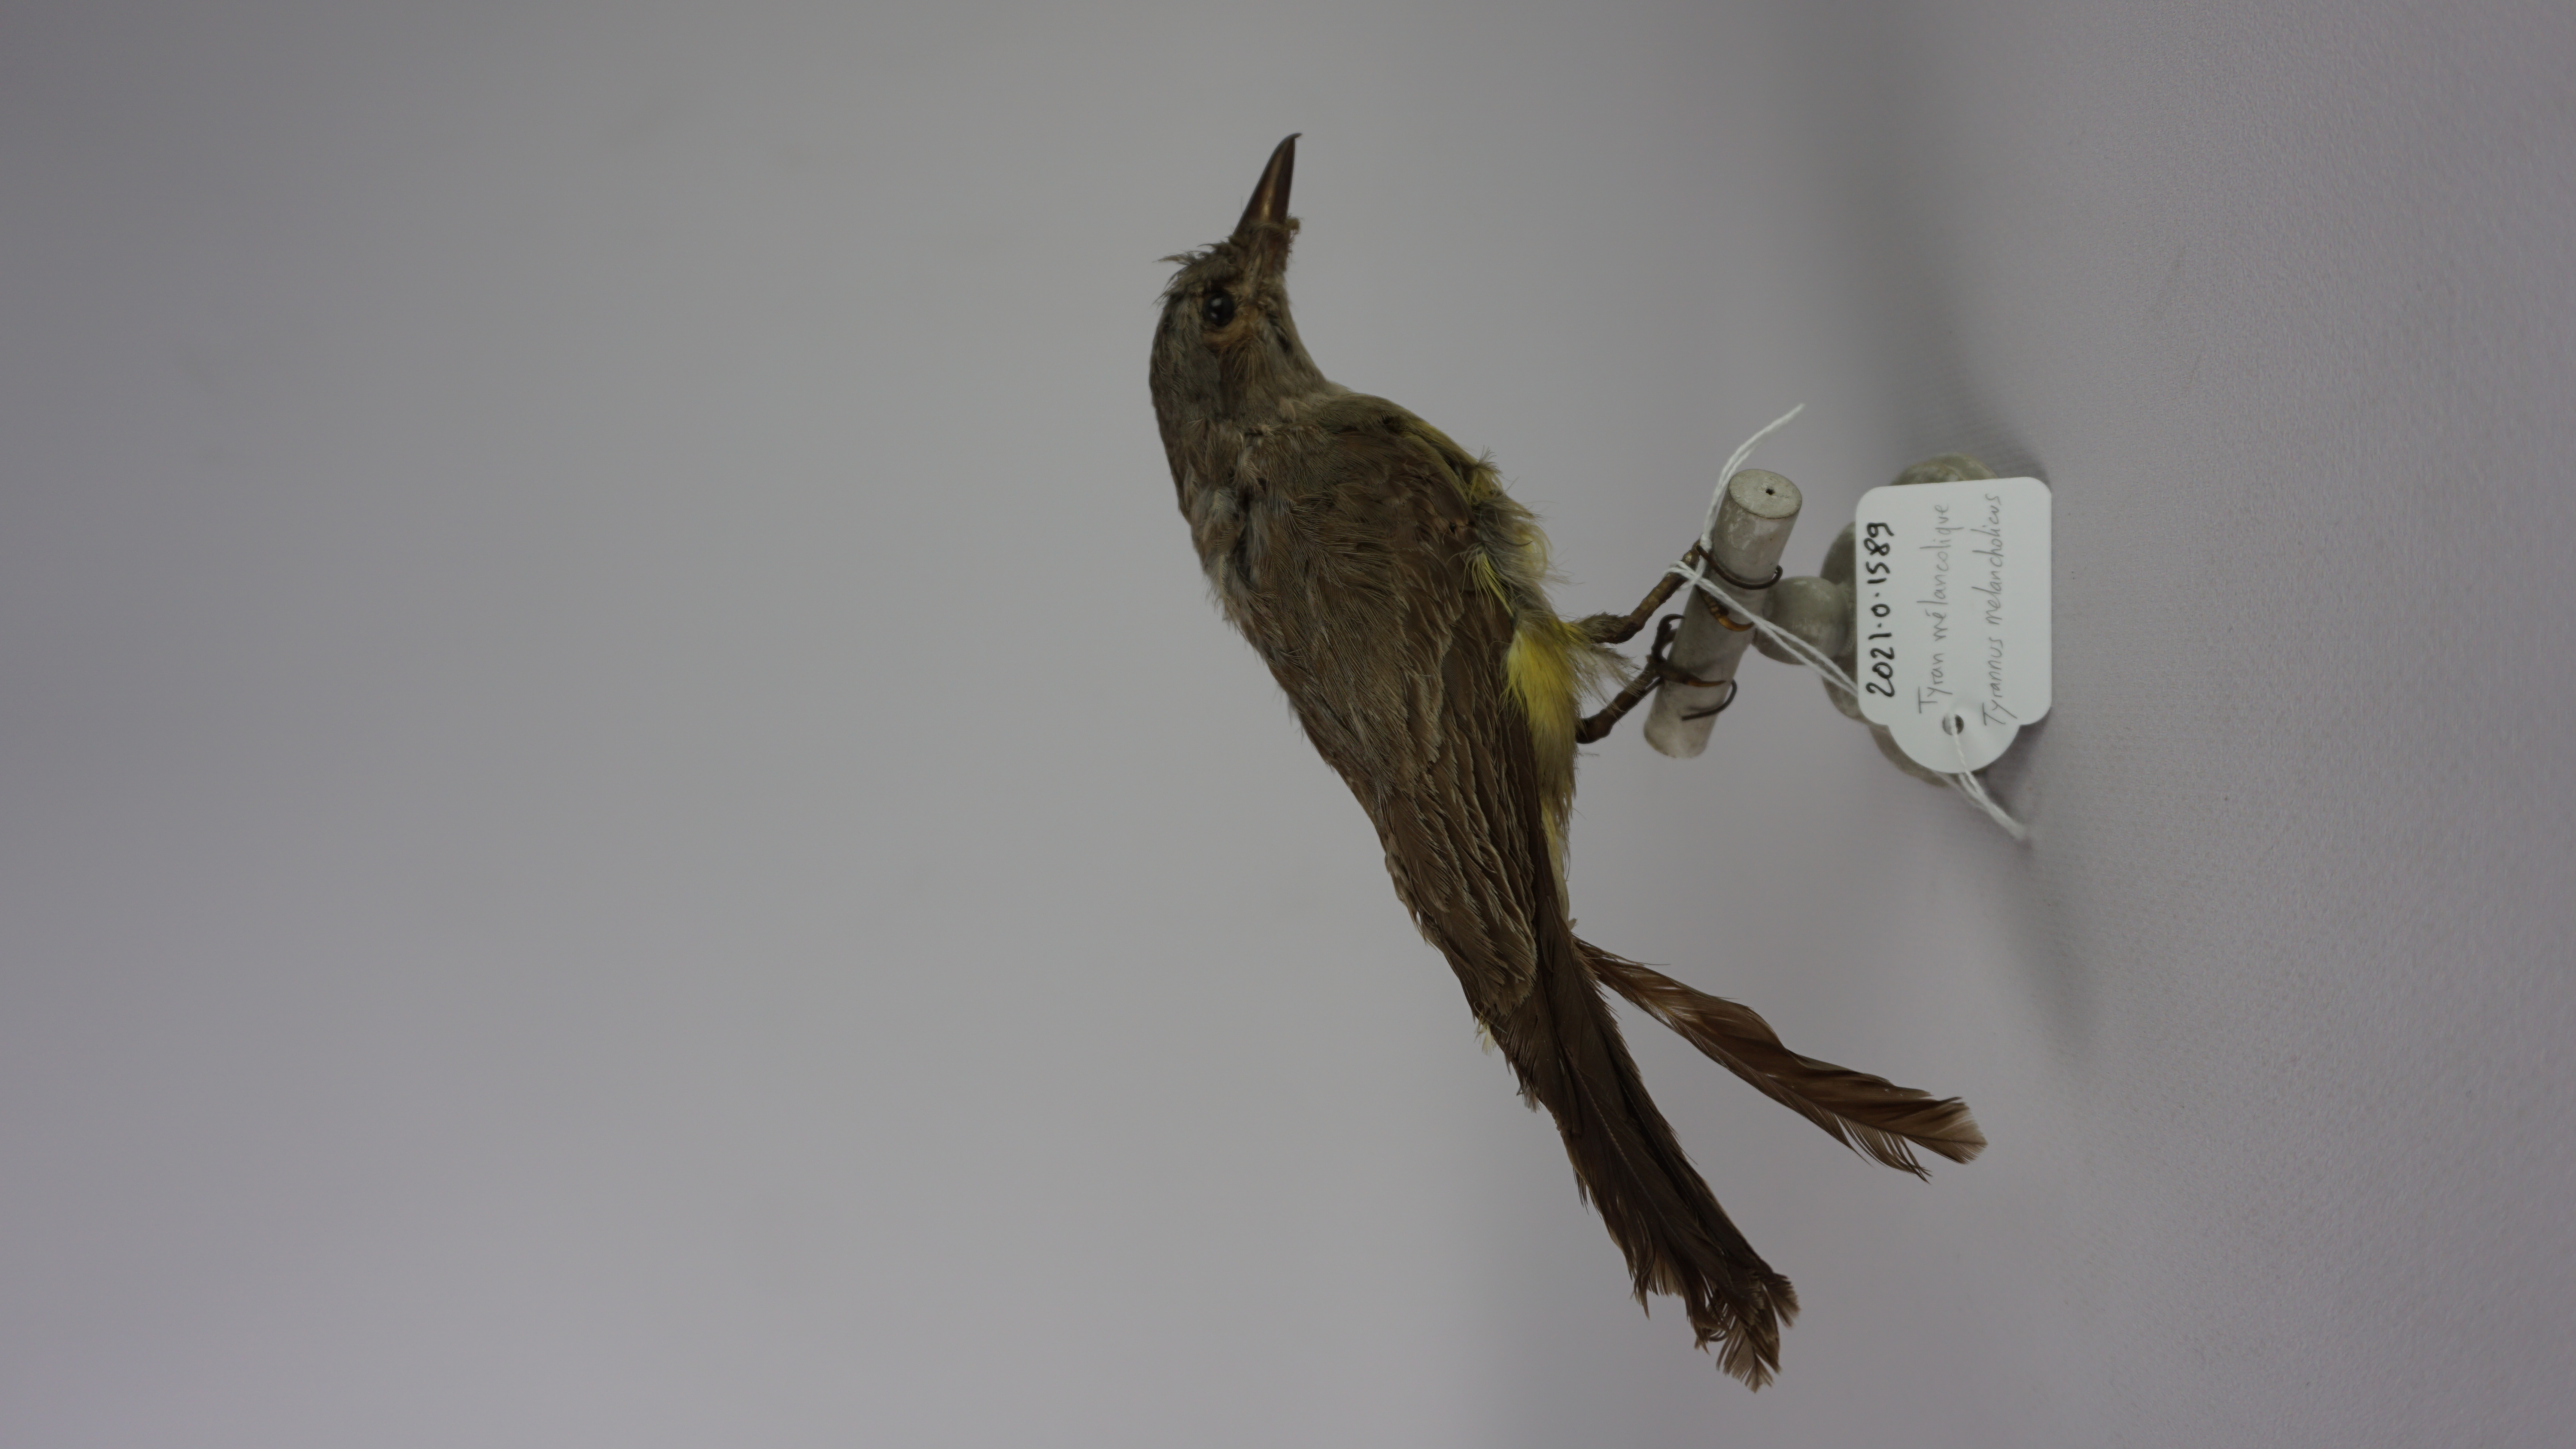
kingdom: Animalia
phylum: Chordata
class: Aves
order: Passeriformes
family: Tyrannidae
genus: Tyrannus
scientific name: Tyrannus melancholicus
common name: Tropical kingbird
